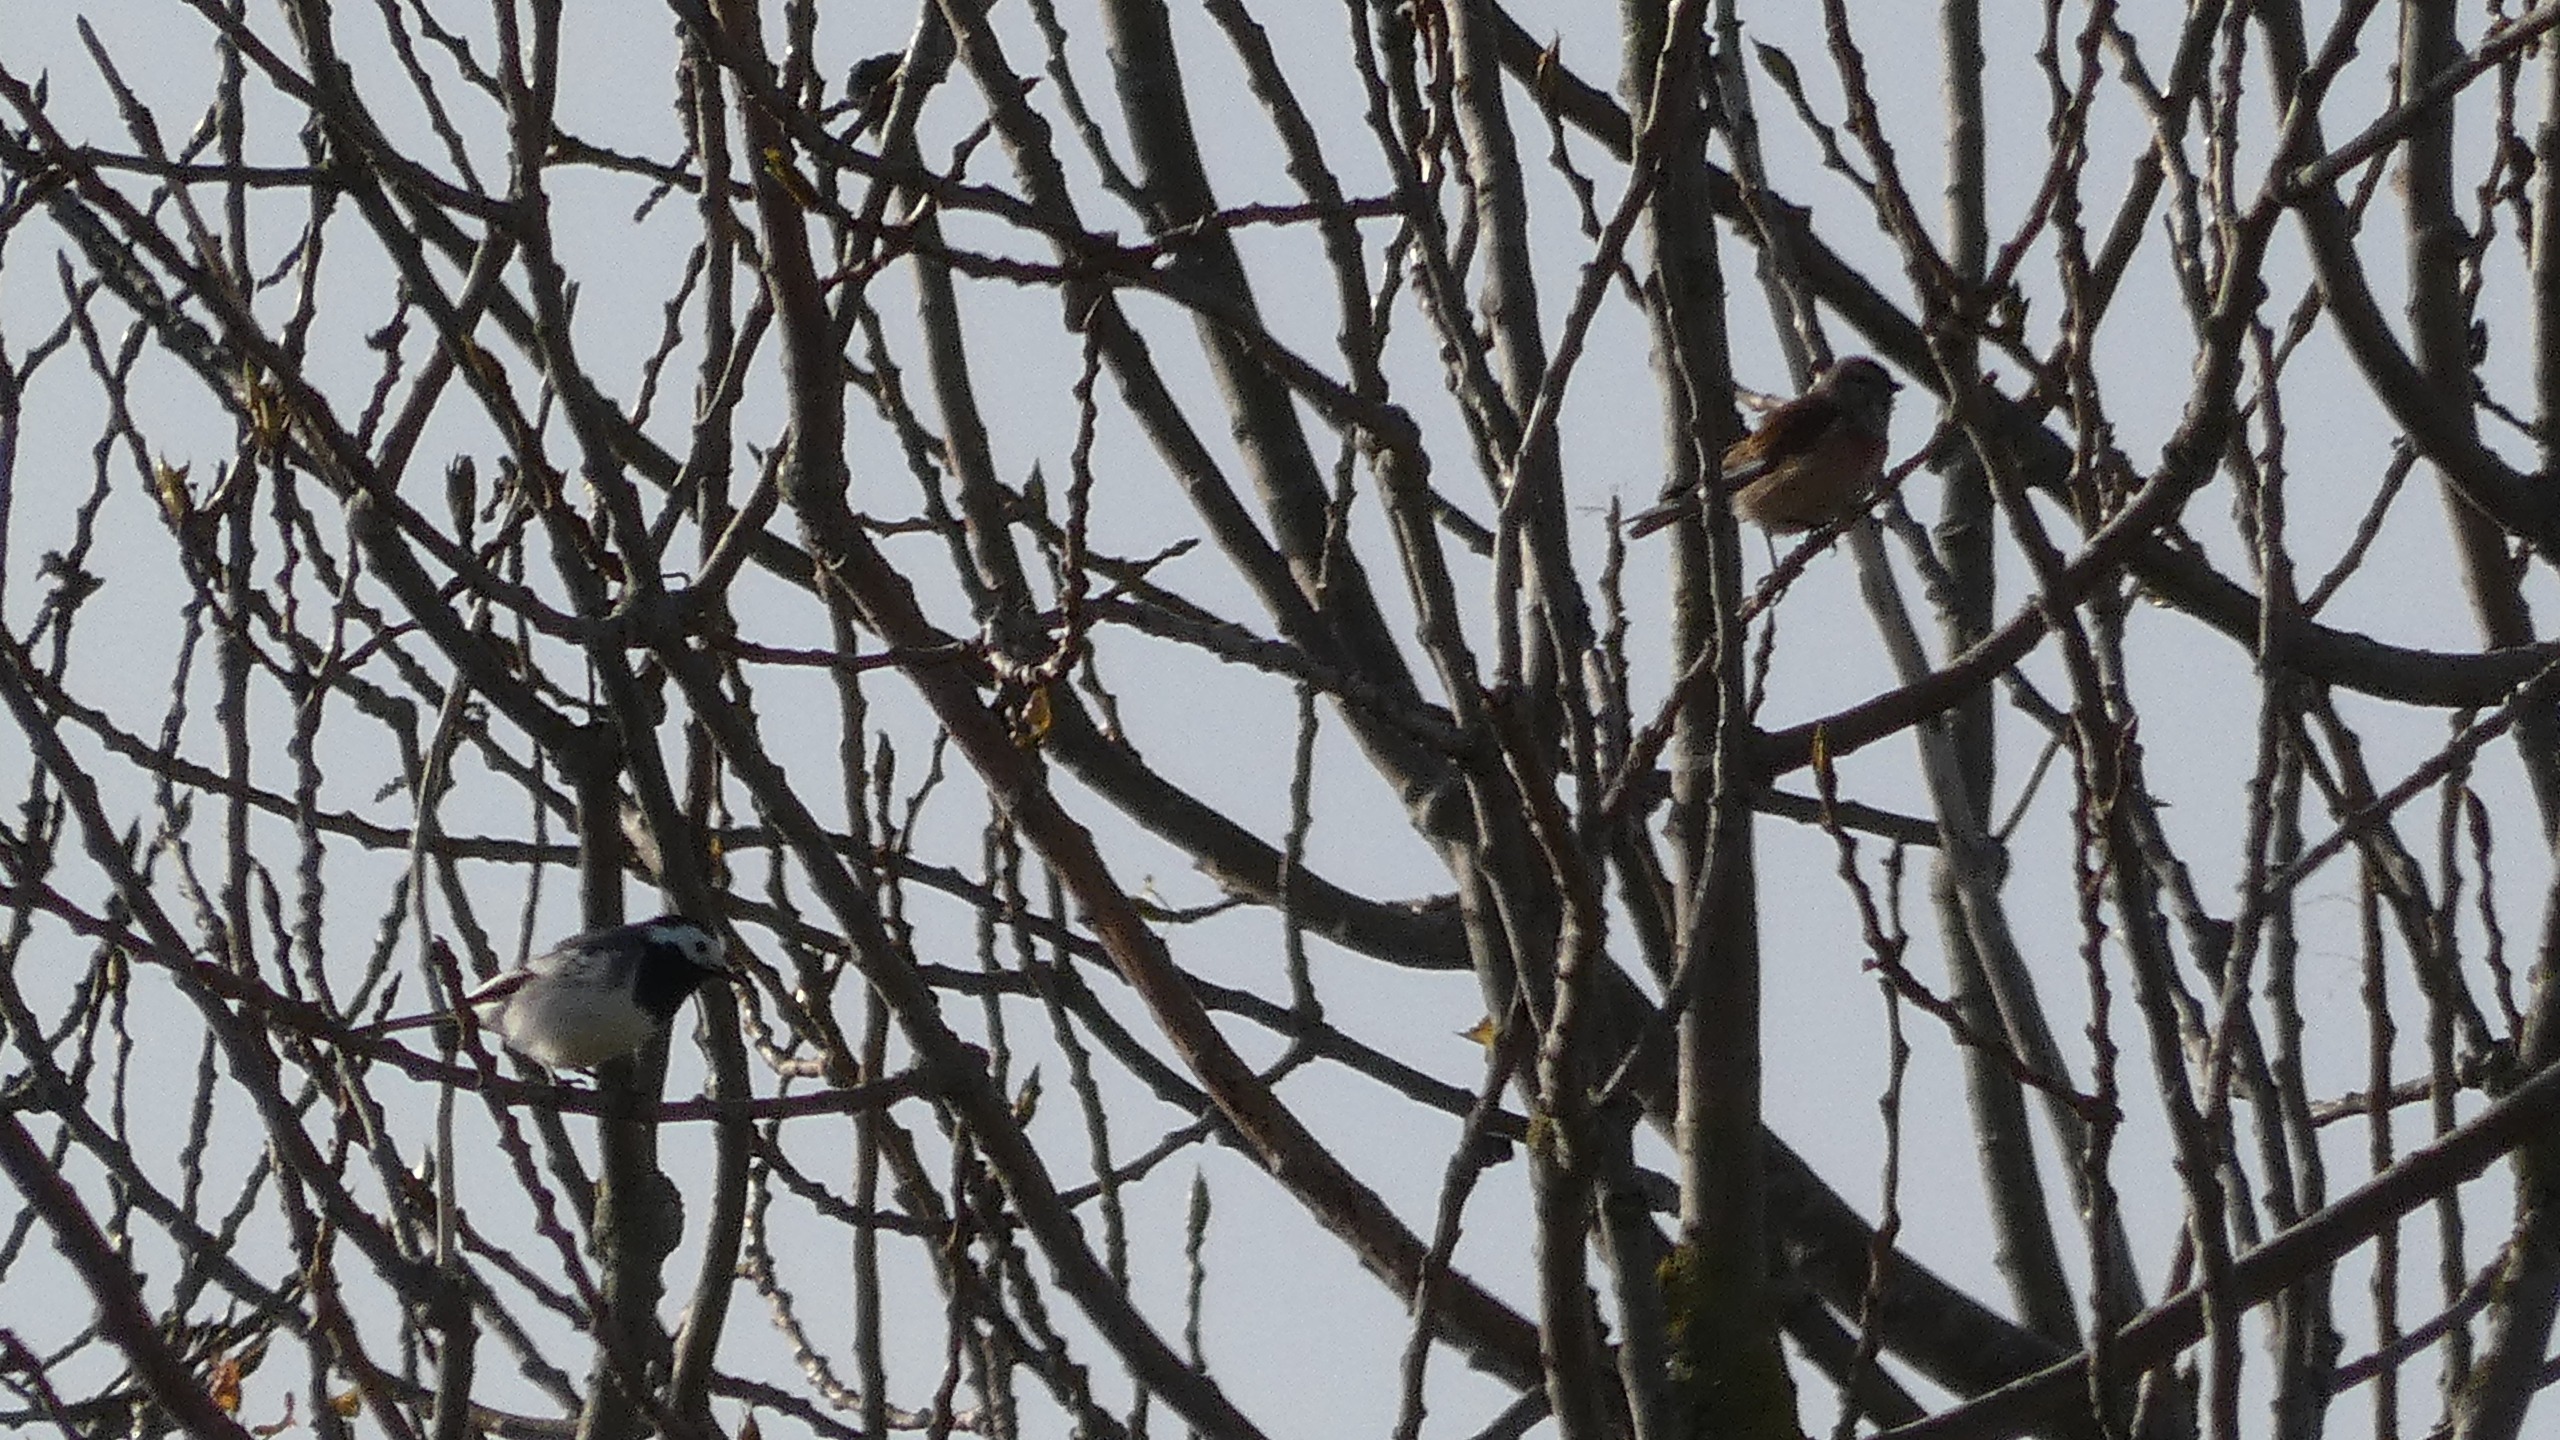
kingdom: Animalia
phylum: Chordata
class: Aves
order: Passeriformes
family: Motacillidae
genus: Motacilla
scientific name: Motacilla alba
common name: Hvid vipstjert
